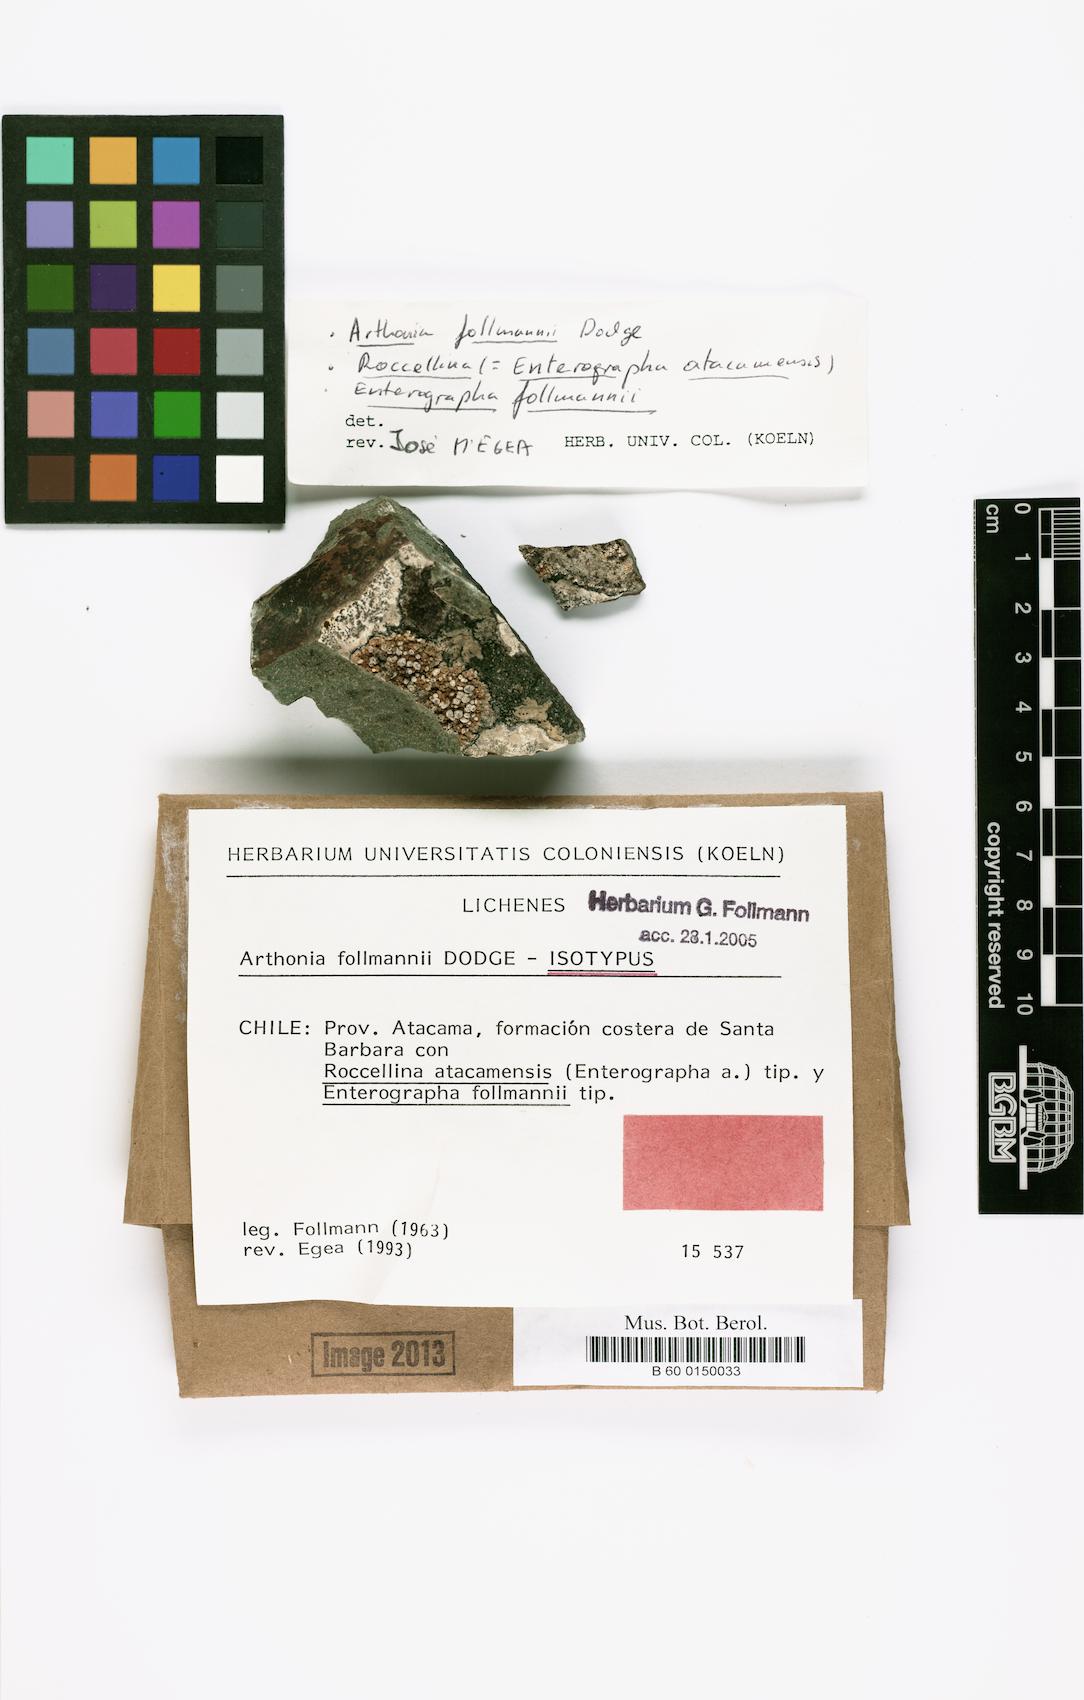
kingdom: Fungi
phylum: Ascomycota
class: Arthoniomycetes
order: Arthoniales
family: Arthoniaceae
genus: Arthonia
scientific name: Arthonia
